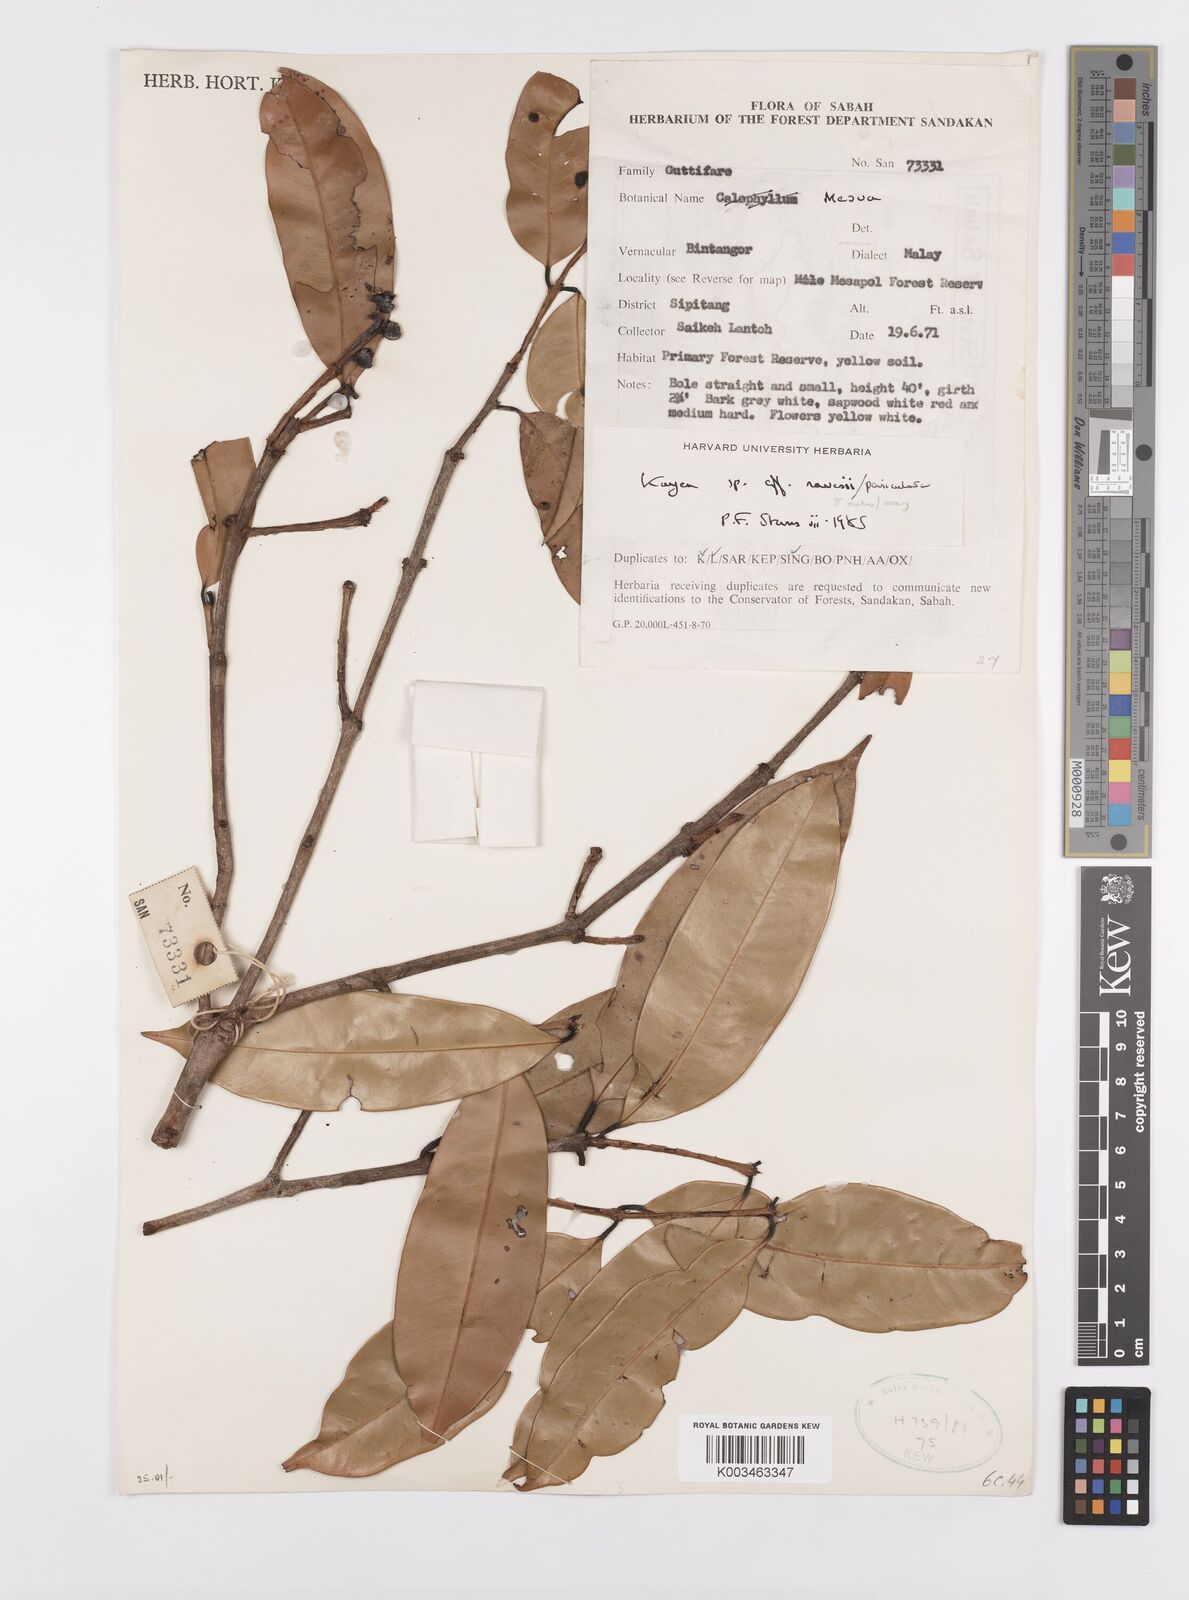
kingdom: Plantae
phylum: Tracheophyta
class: Magnoliopsida
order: Malpighiales
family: Calophyllaceae
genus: Kayea
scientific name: Kayea paniculata
